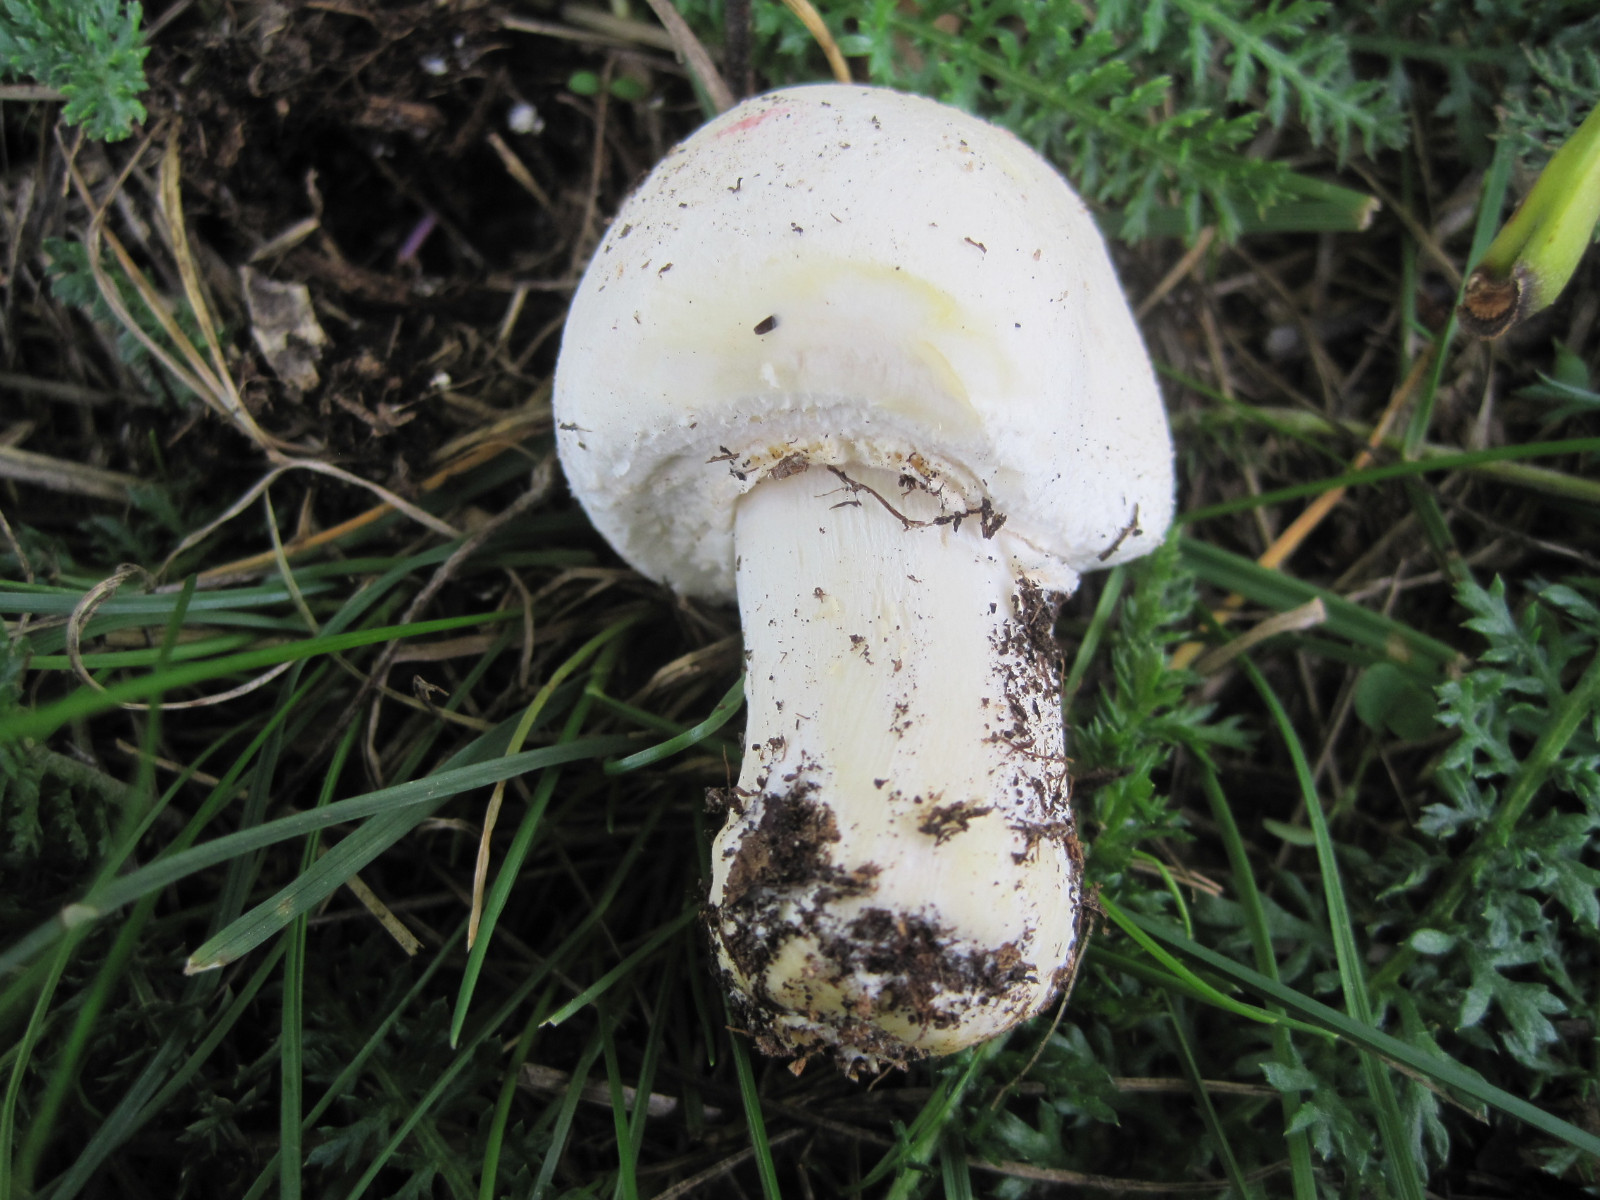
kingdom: Fungi
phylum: Basidiomycota
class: Agaricomycetes
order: Agaricales
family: Agaricaceae
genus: Agaricus
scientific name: Agaricus xanthodermus
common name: karbol-champignon
